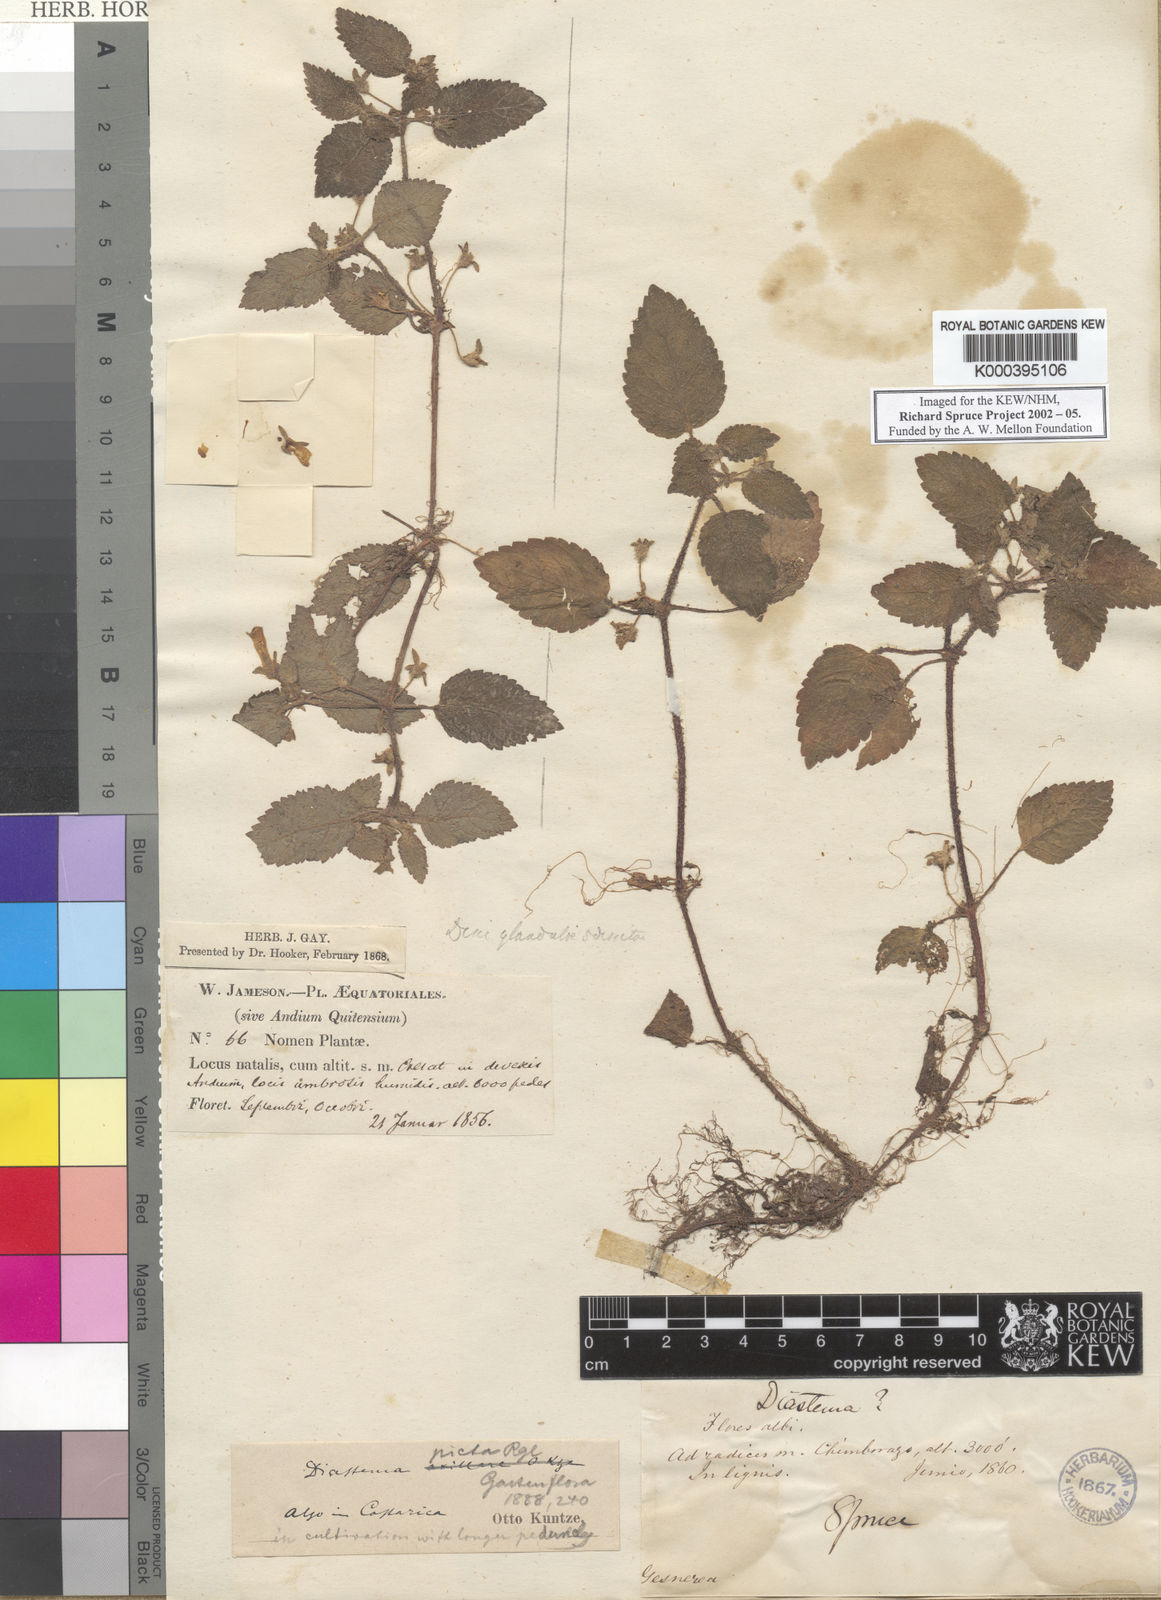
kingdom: Plantae
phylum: Tracheophyta
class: Magnoliopsida
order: Lamiales
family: Gesneriaceae
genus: Diastema
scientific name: Diastema vexans
